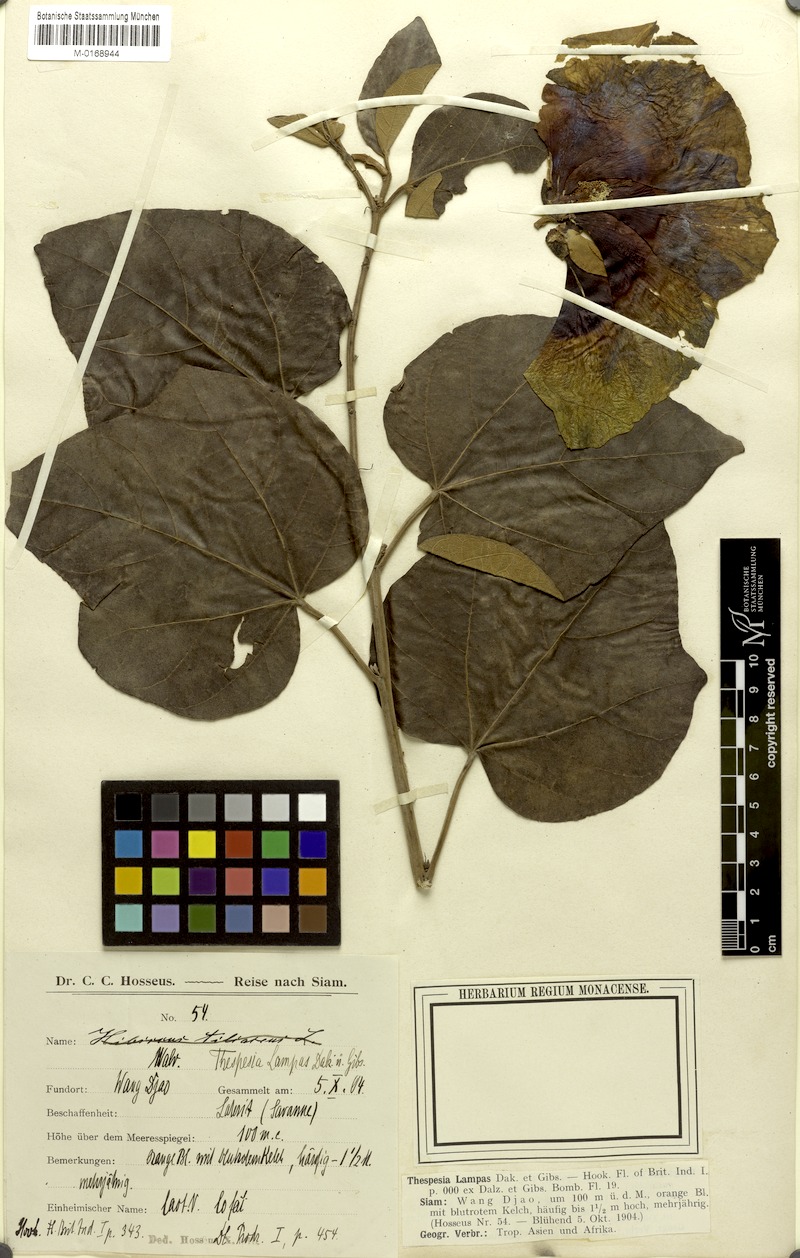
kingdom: Plantae
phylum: Tracheophyta
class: Magnoliopsida
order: Malvales
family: Malvaceae
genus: Thespesia
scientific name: Thespesia lampas
